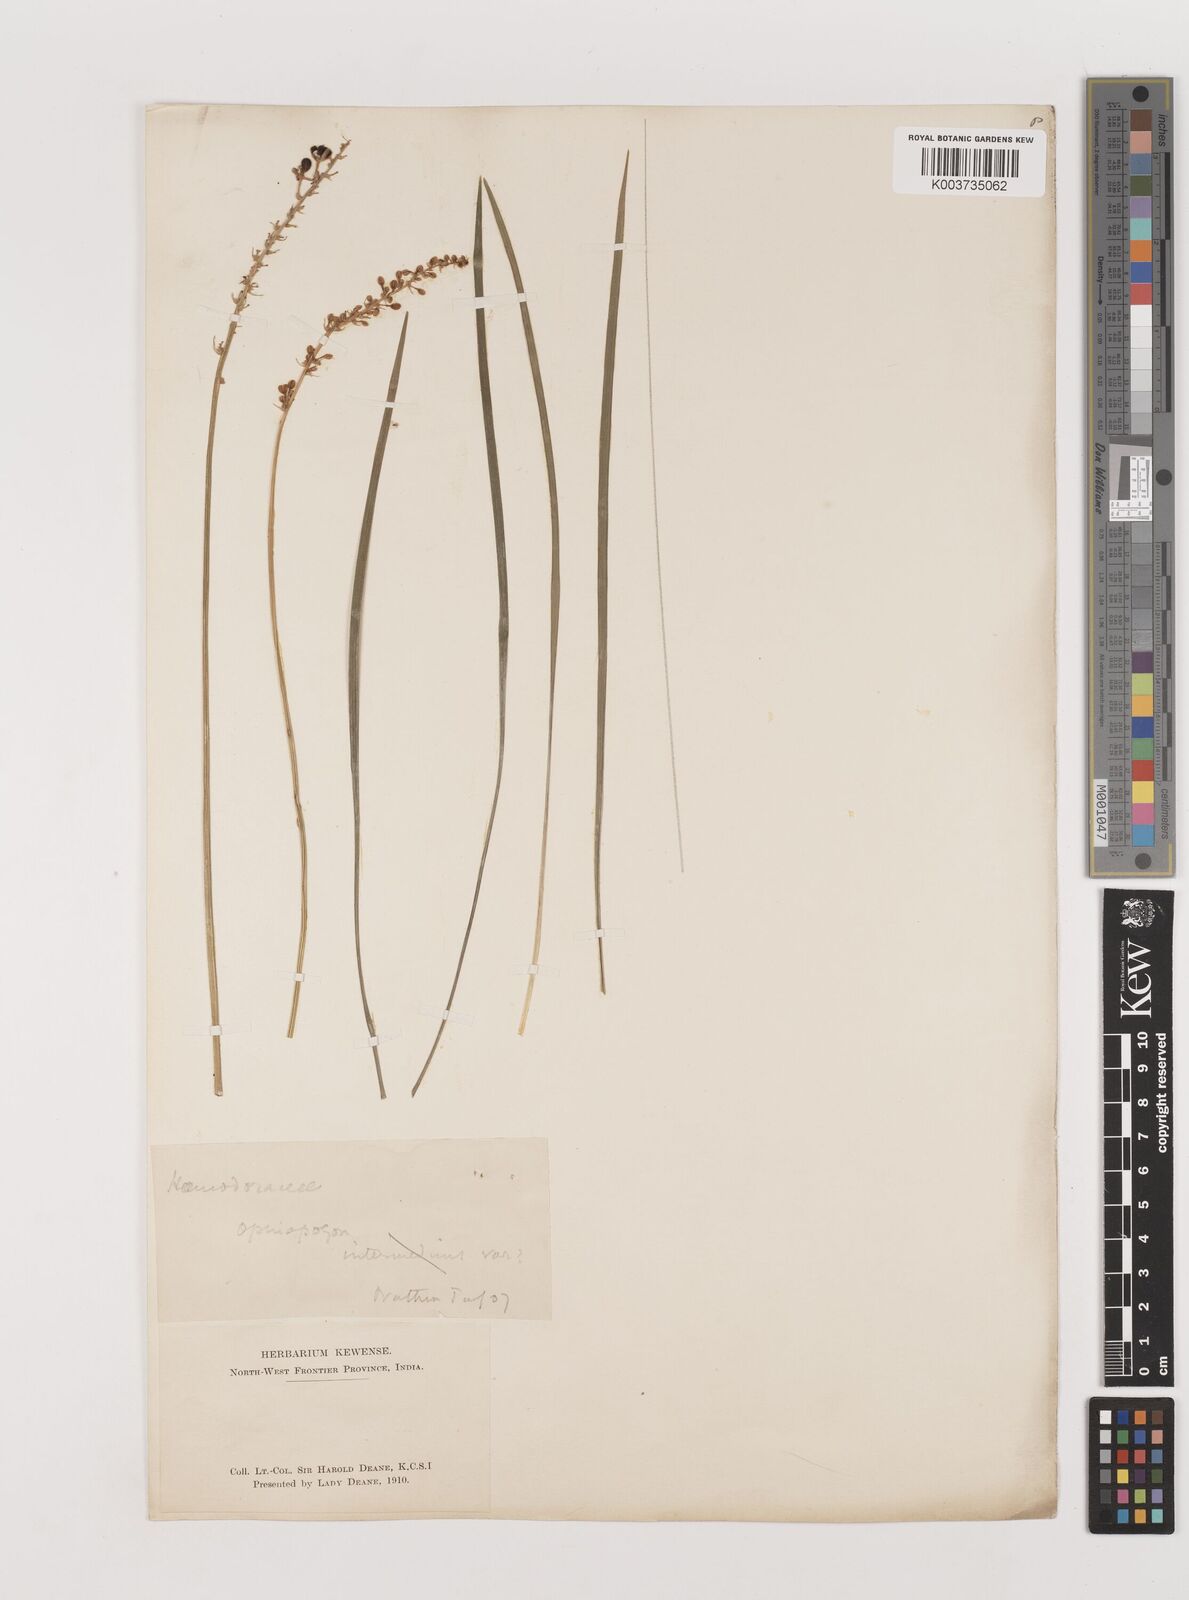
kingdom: Plantae
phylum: Tracheophyta
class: Liliopsida
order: Asparagales
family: Asparagaceae
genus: Ophiopogon
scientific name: Ophiopogon intermedius
